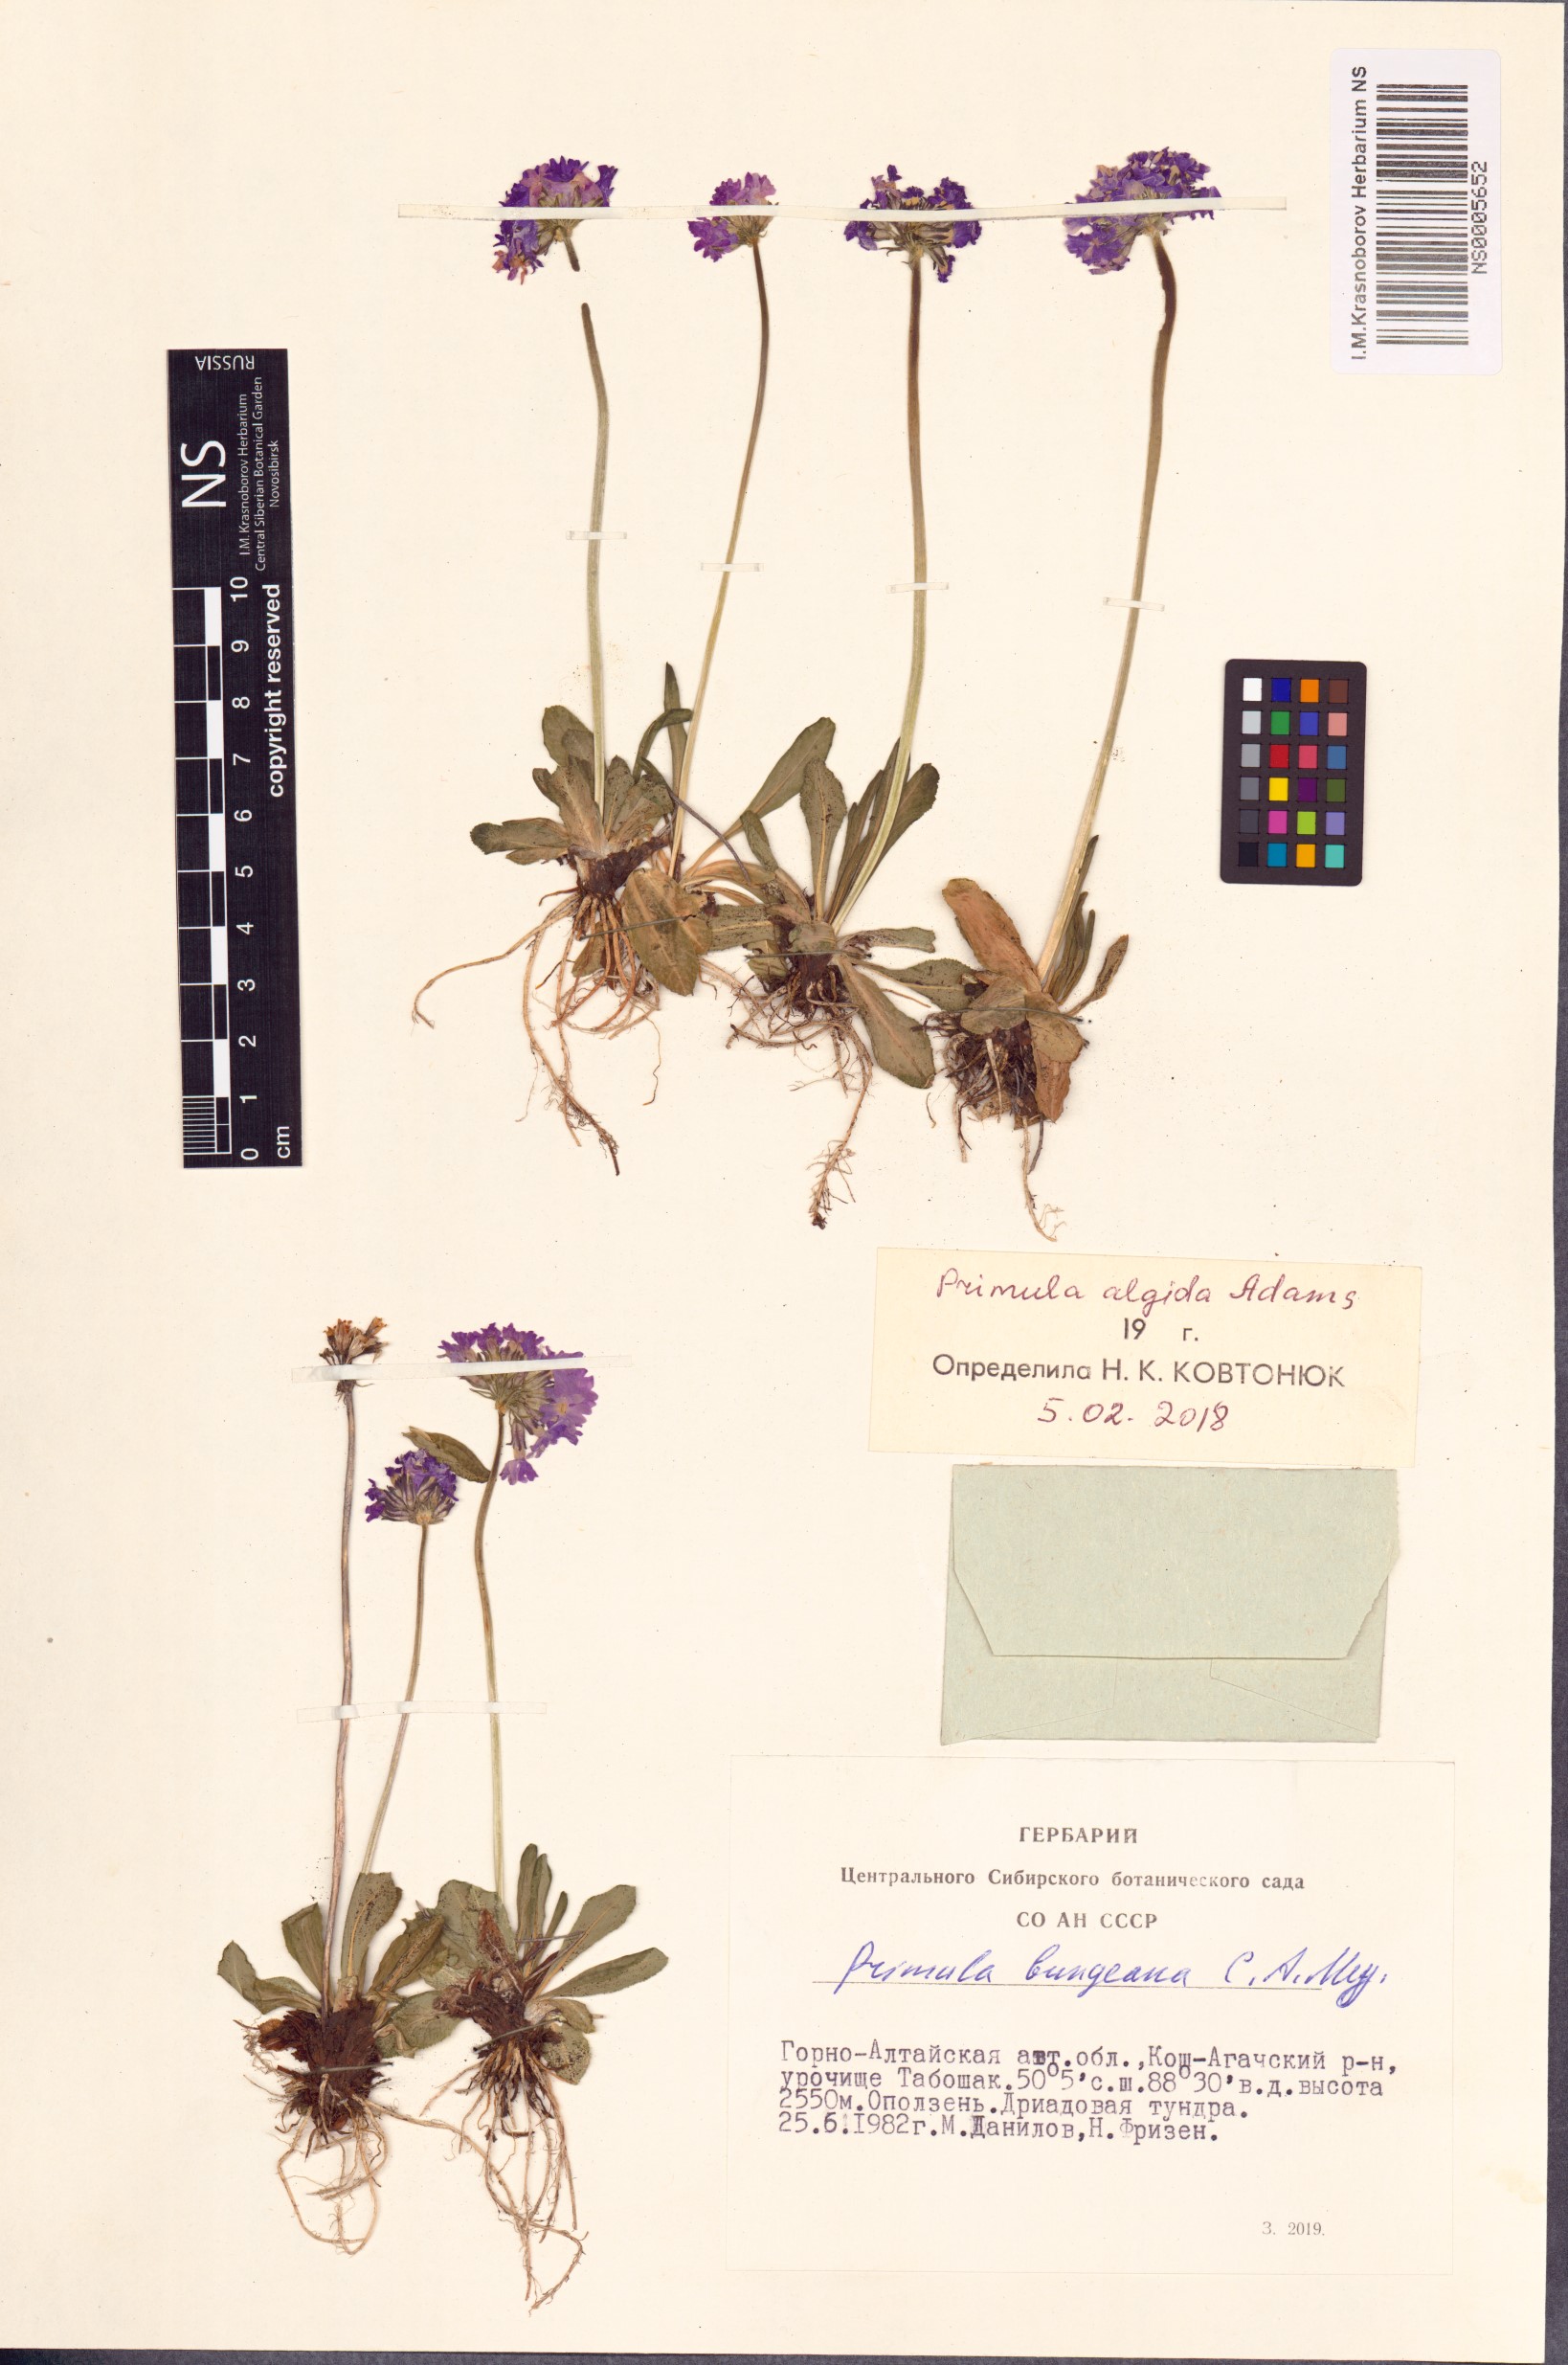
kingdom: Plantae
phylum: Tracheophyta
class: Magnoliopsida
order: Ericales
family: Primulaceae
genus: Primula
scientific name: Primula algida
